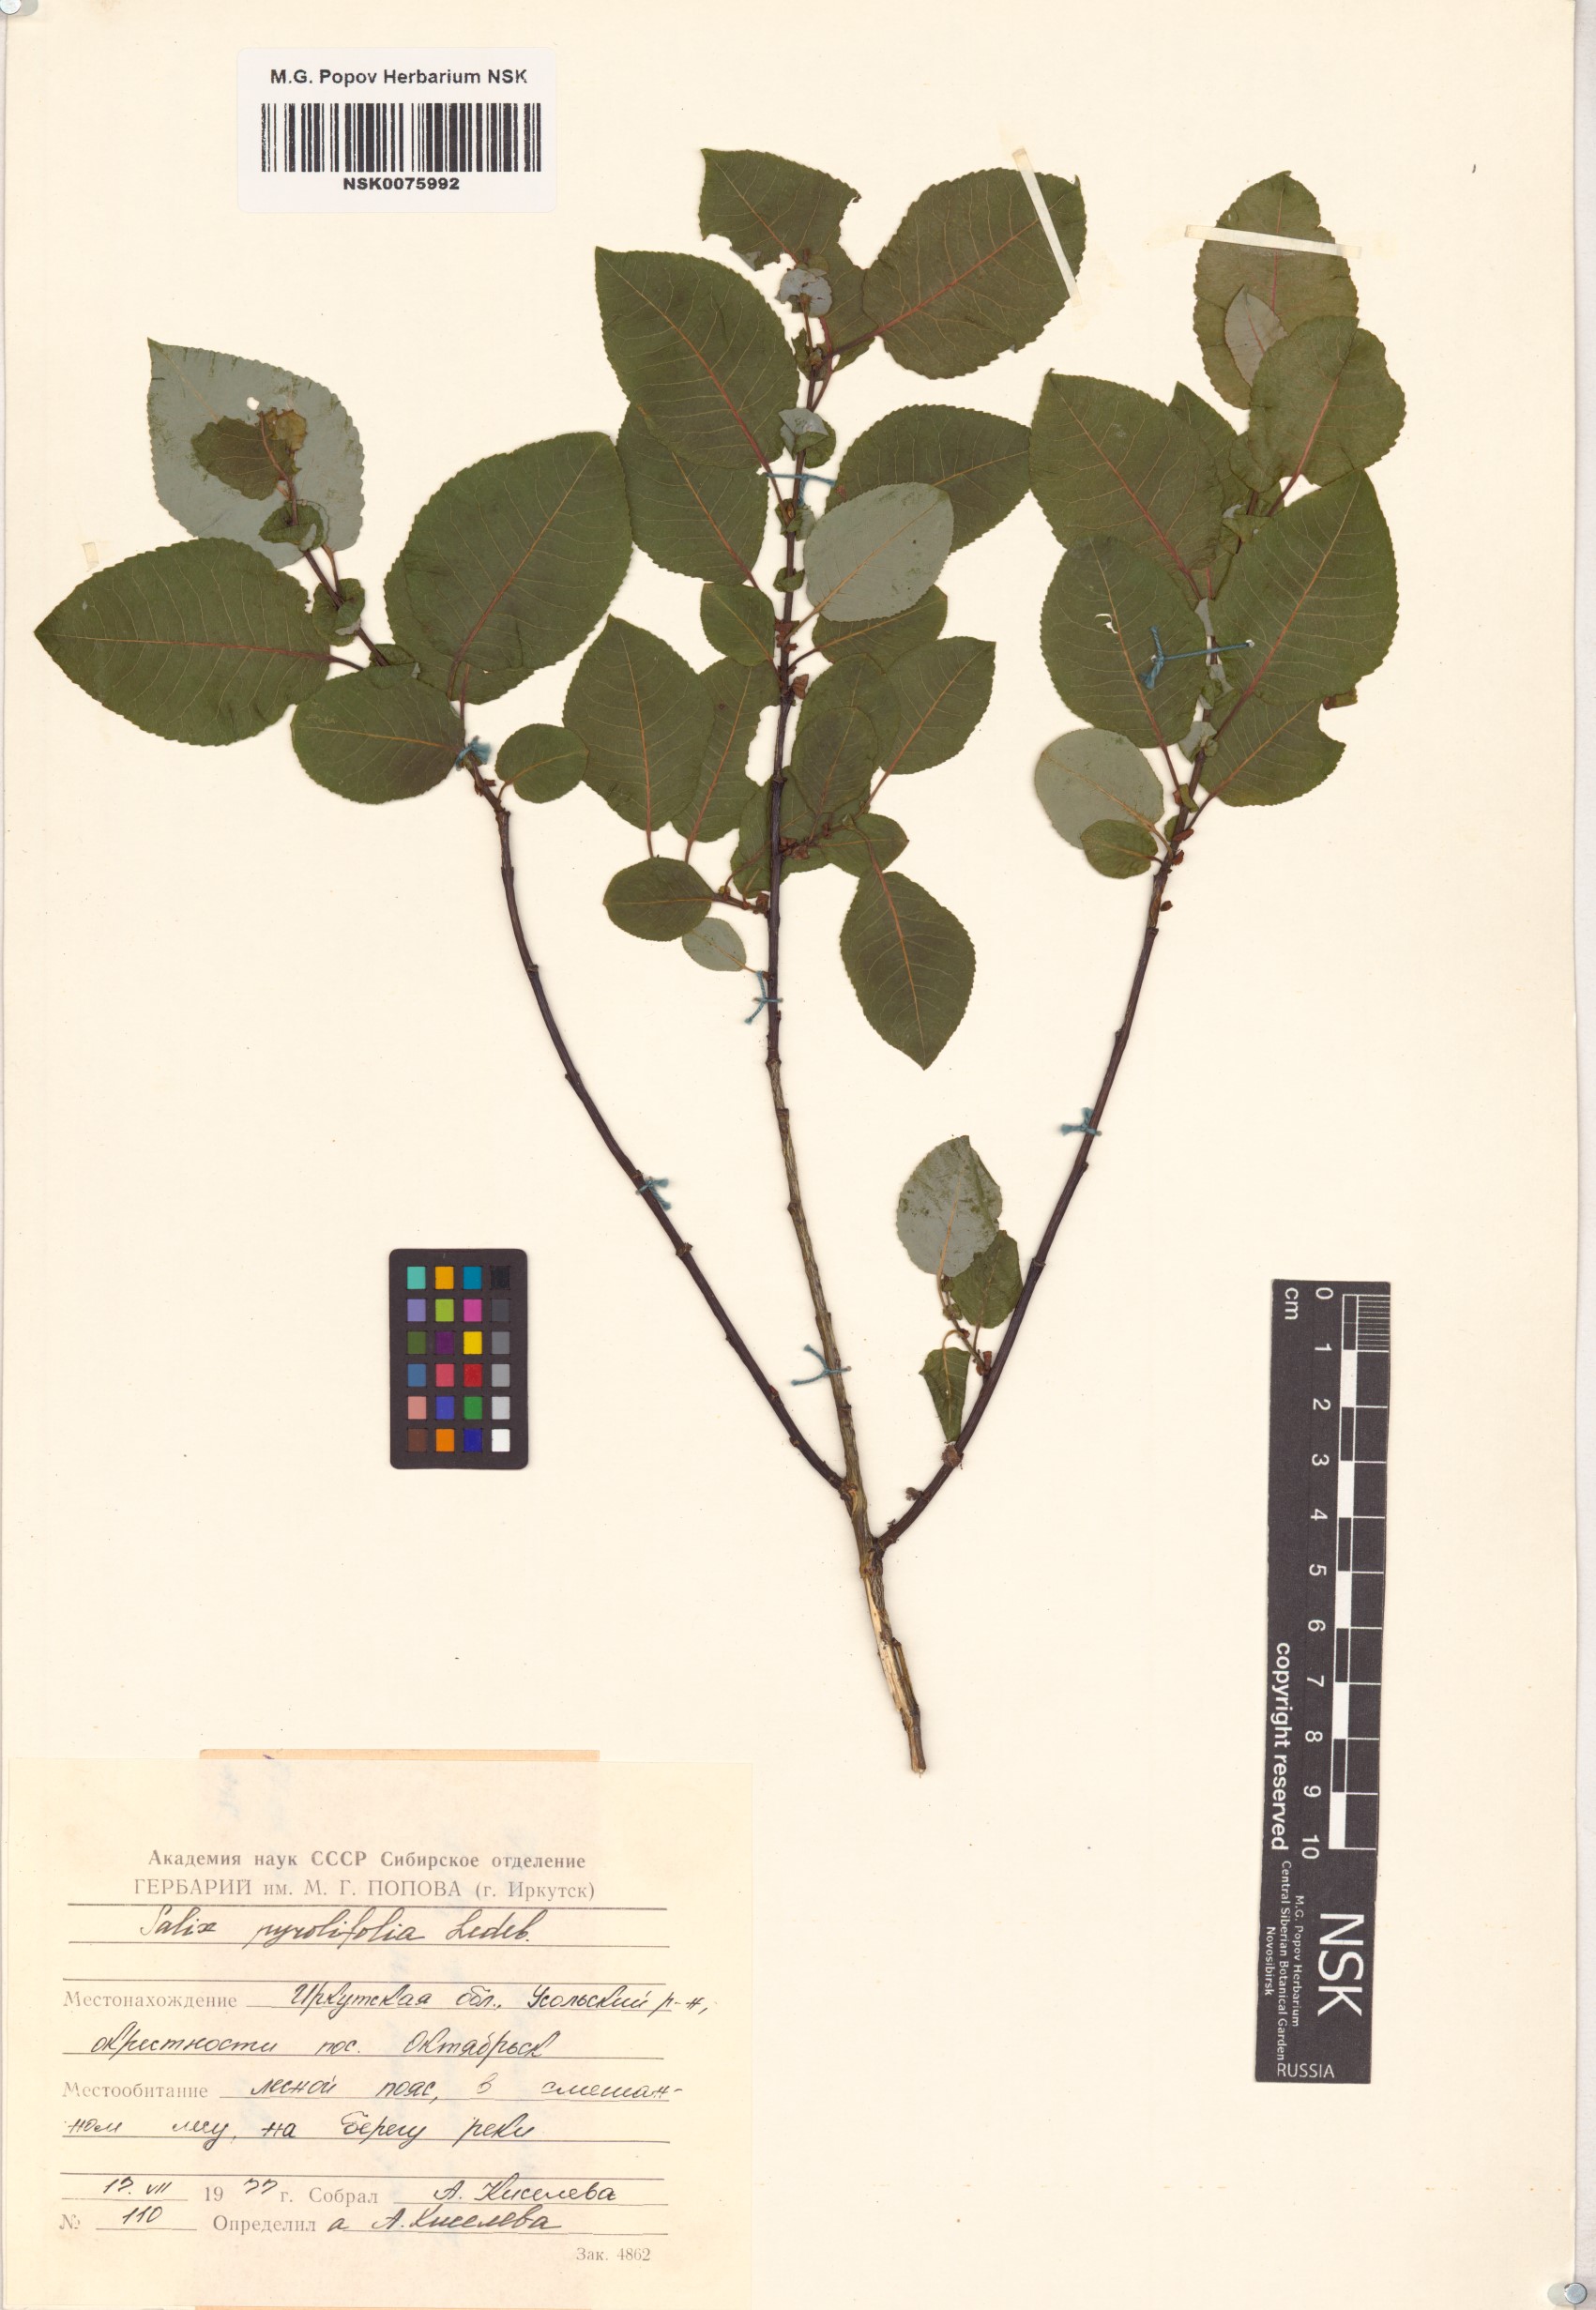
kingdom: Plantae
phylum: Tracheophyta
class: Magnoliopsida
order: Malpighiales
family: Salicaceae
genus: Salix
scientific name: Salix pyrolifolia
